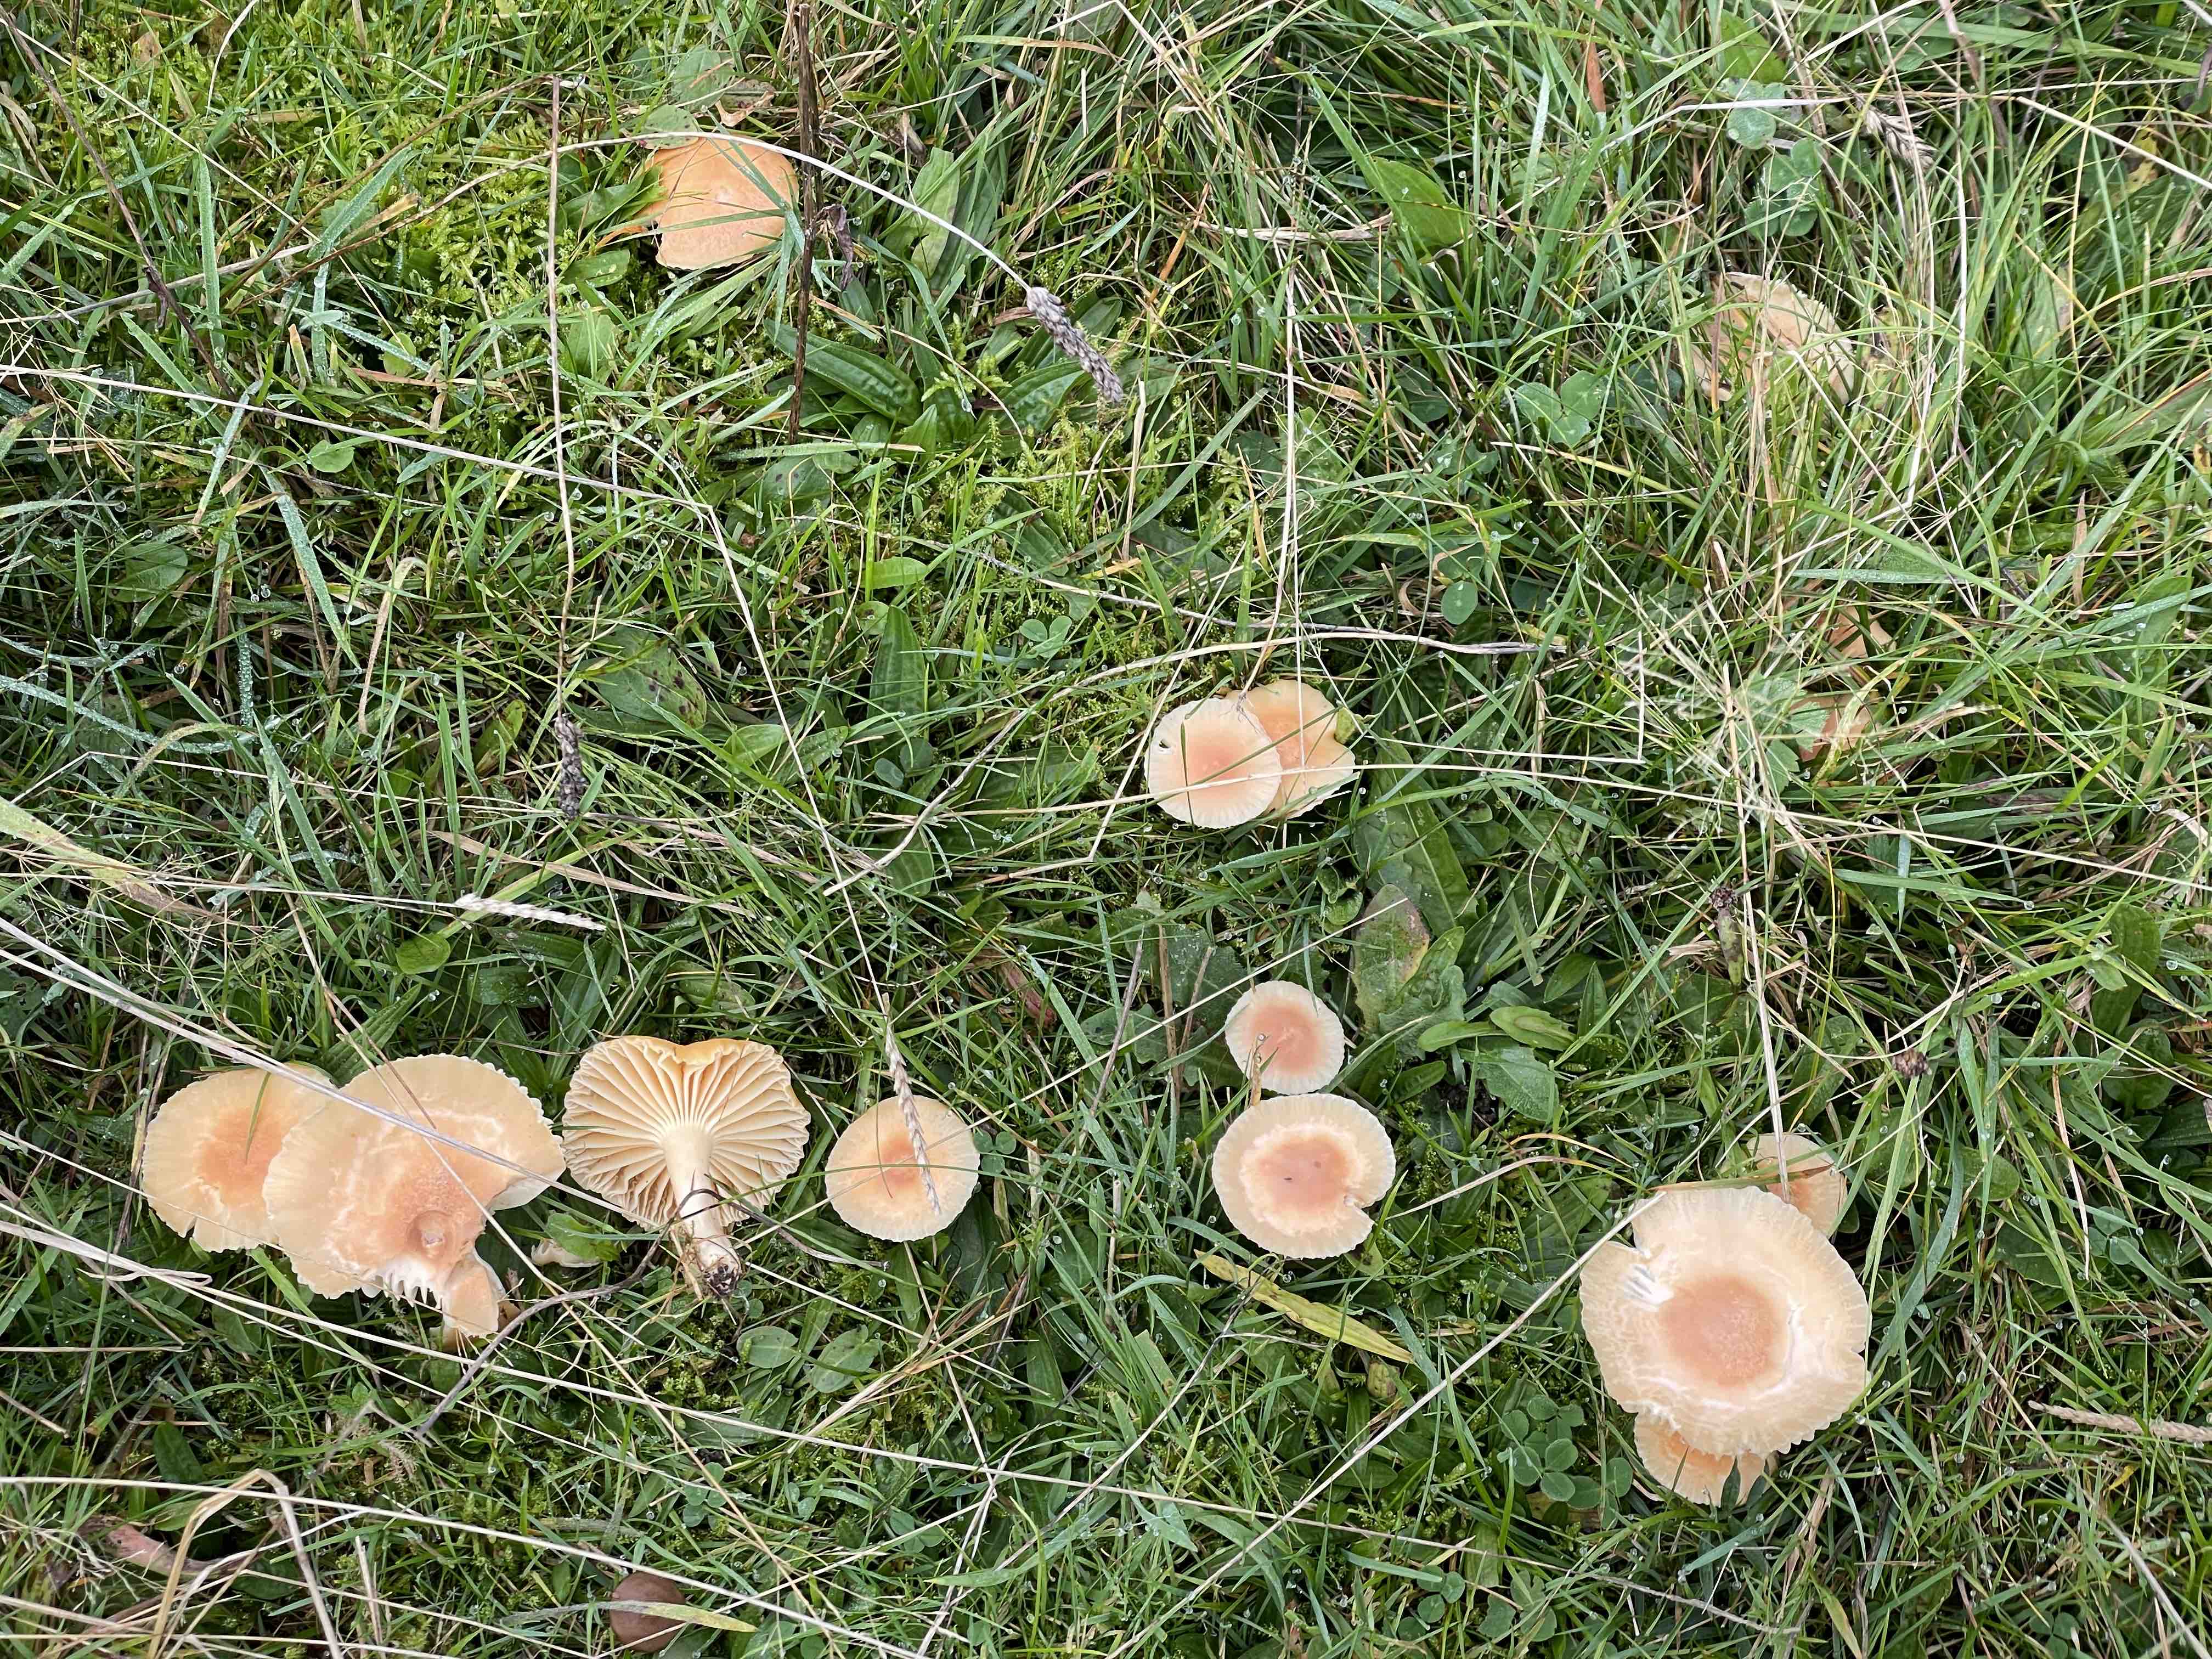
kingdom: Fungi
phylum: Basidiomycota
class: Agaricomycetes
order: Agaricales
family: Hygrophoraceae
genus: Cuphophyllus
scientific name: Cuphophyllus pratensis
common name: eng-vokshat
